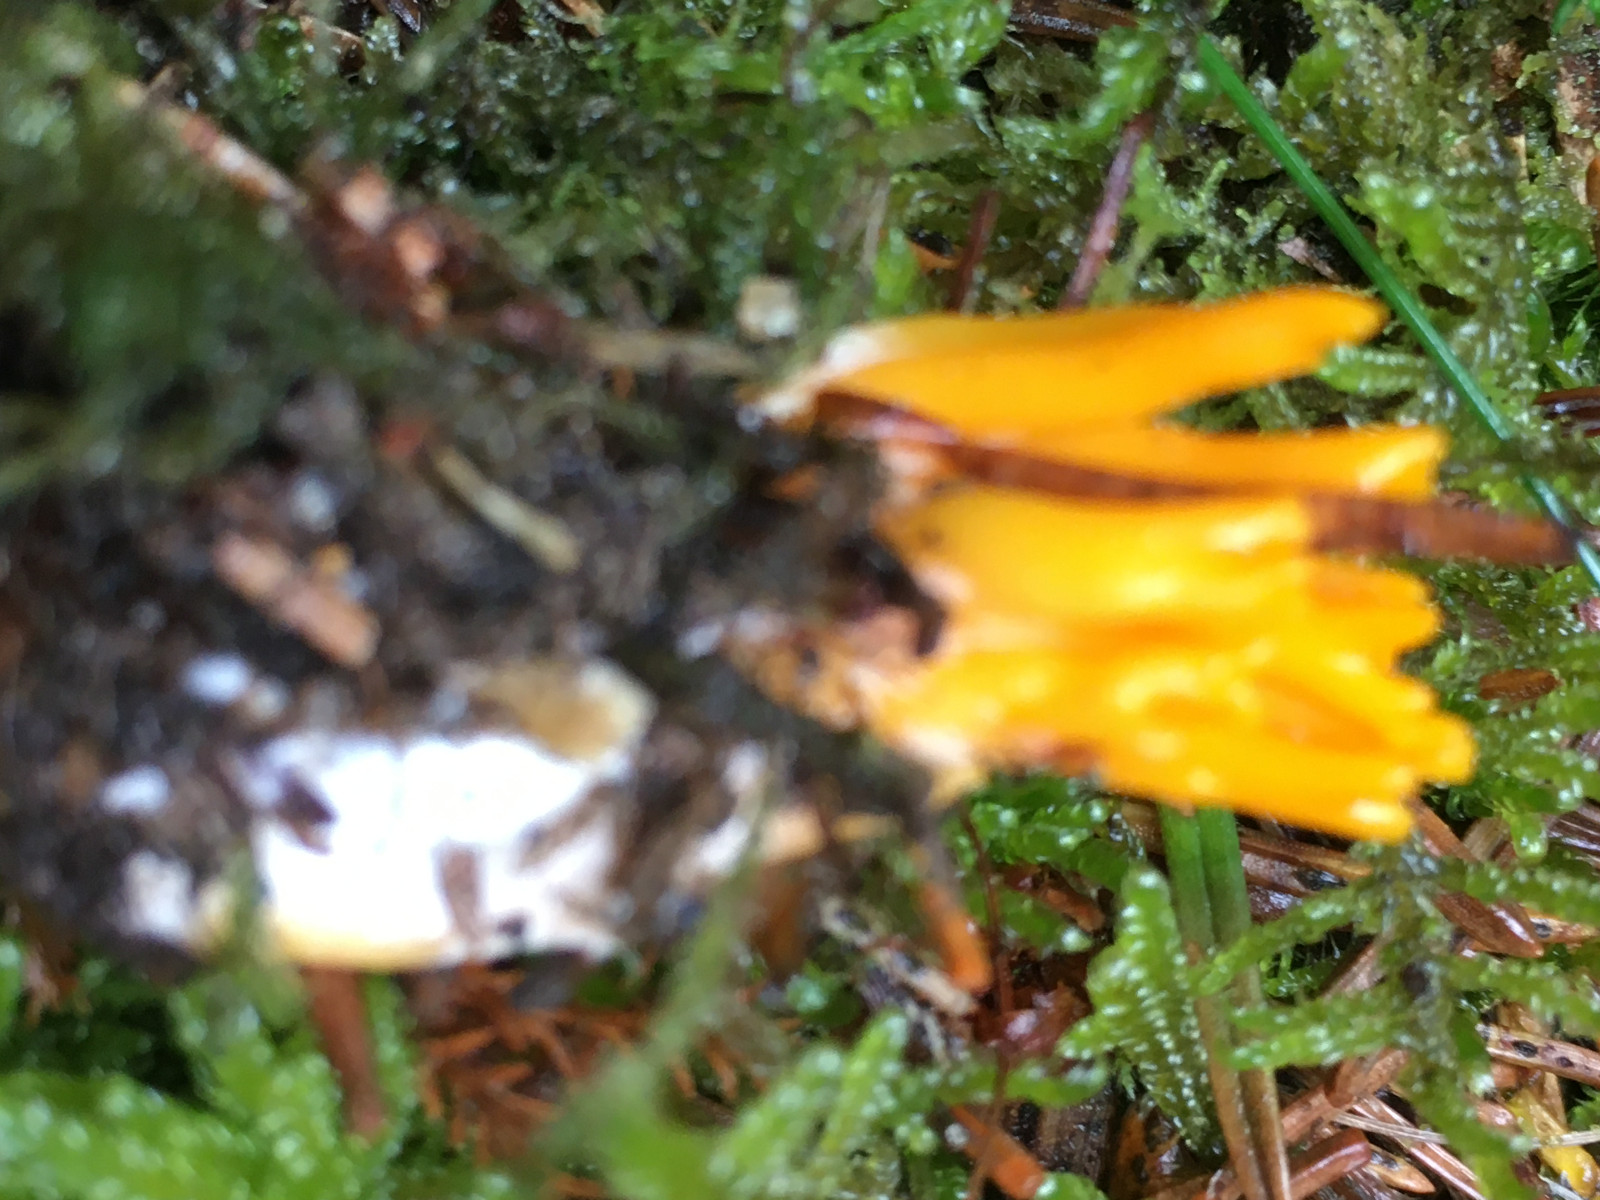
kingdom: Fungi
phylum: Basidiomycota
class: Dacrymycetes
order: Dacrymycetales
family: Dacrymycetaceae
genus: Calocera
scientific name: Calocera viscosa
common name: almindelig guldgaffel
